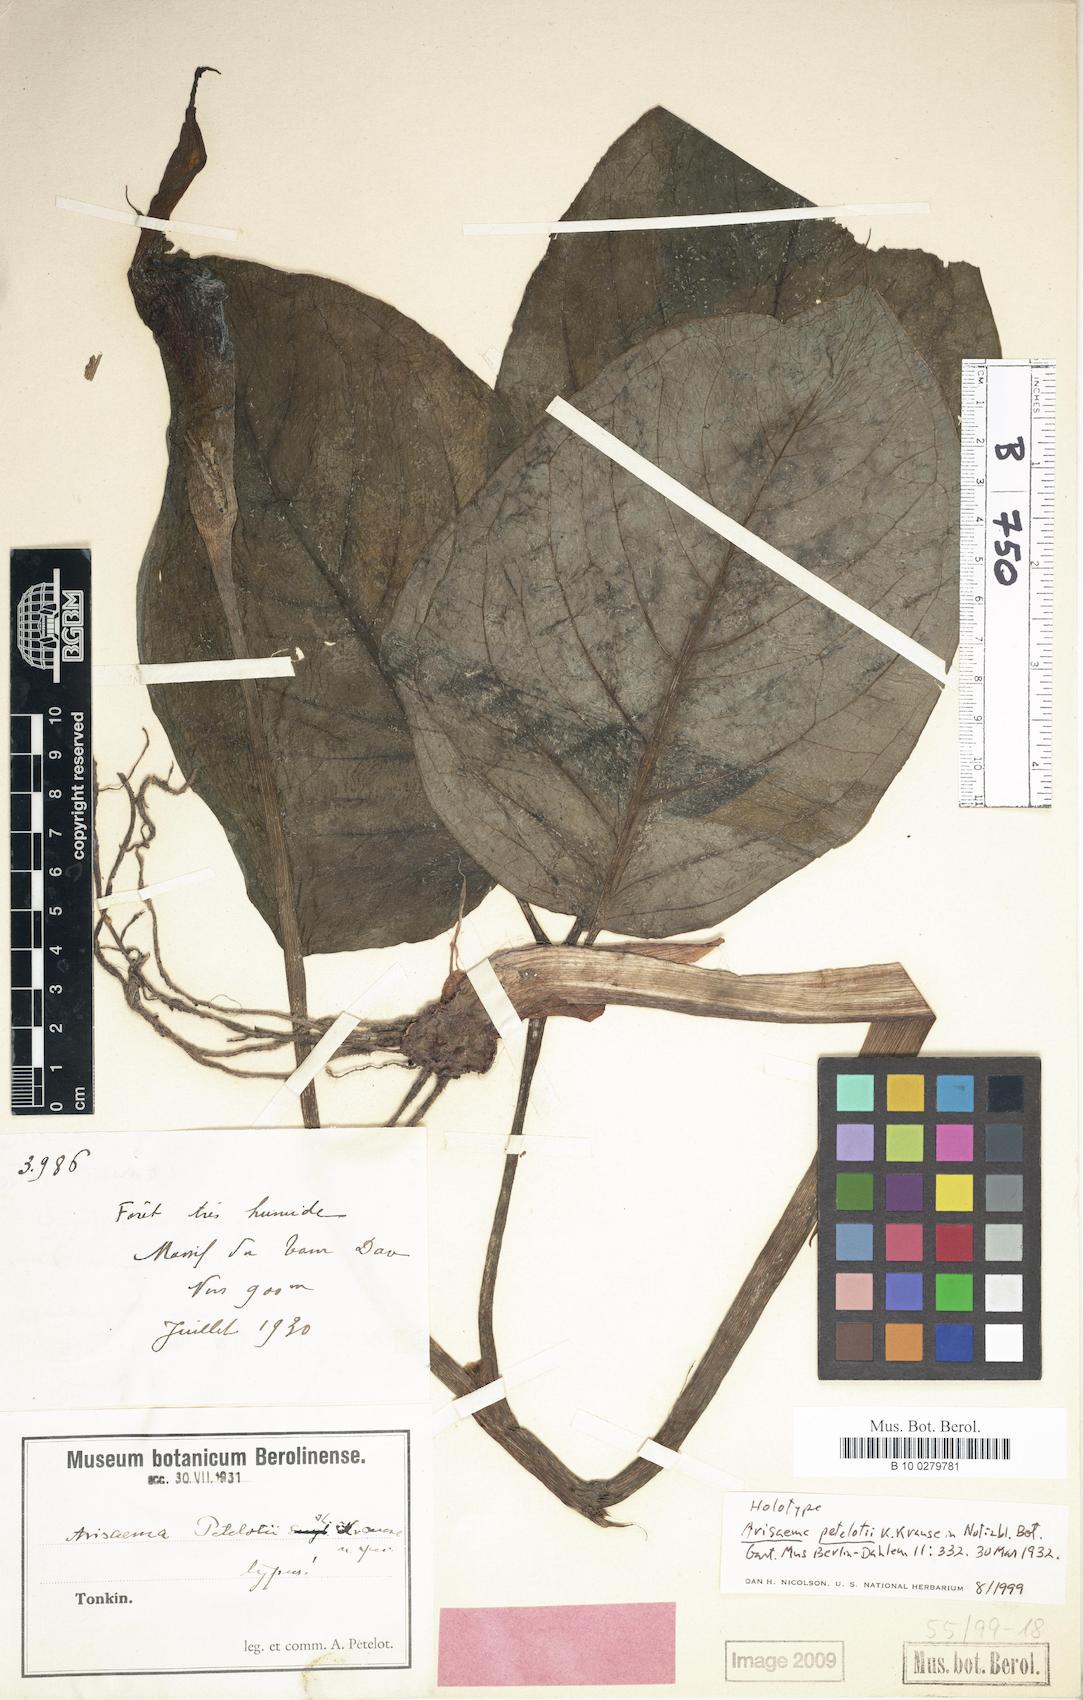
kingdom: Plantae
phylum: Tracheophyta
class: Liliopsida
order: Alismatales
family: Araceae
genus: Arisaema
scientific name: Arisaema petelotii
